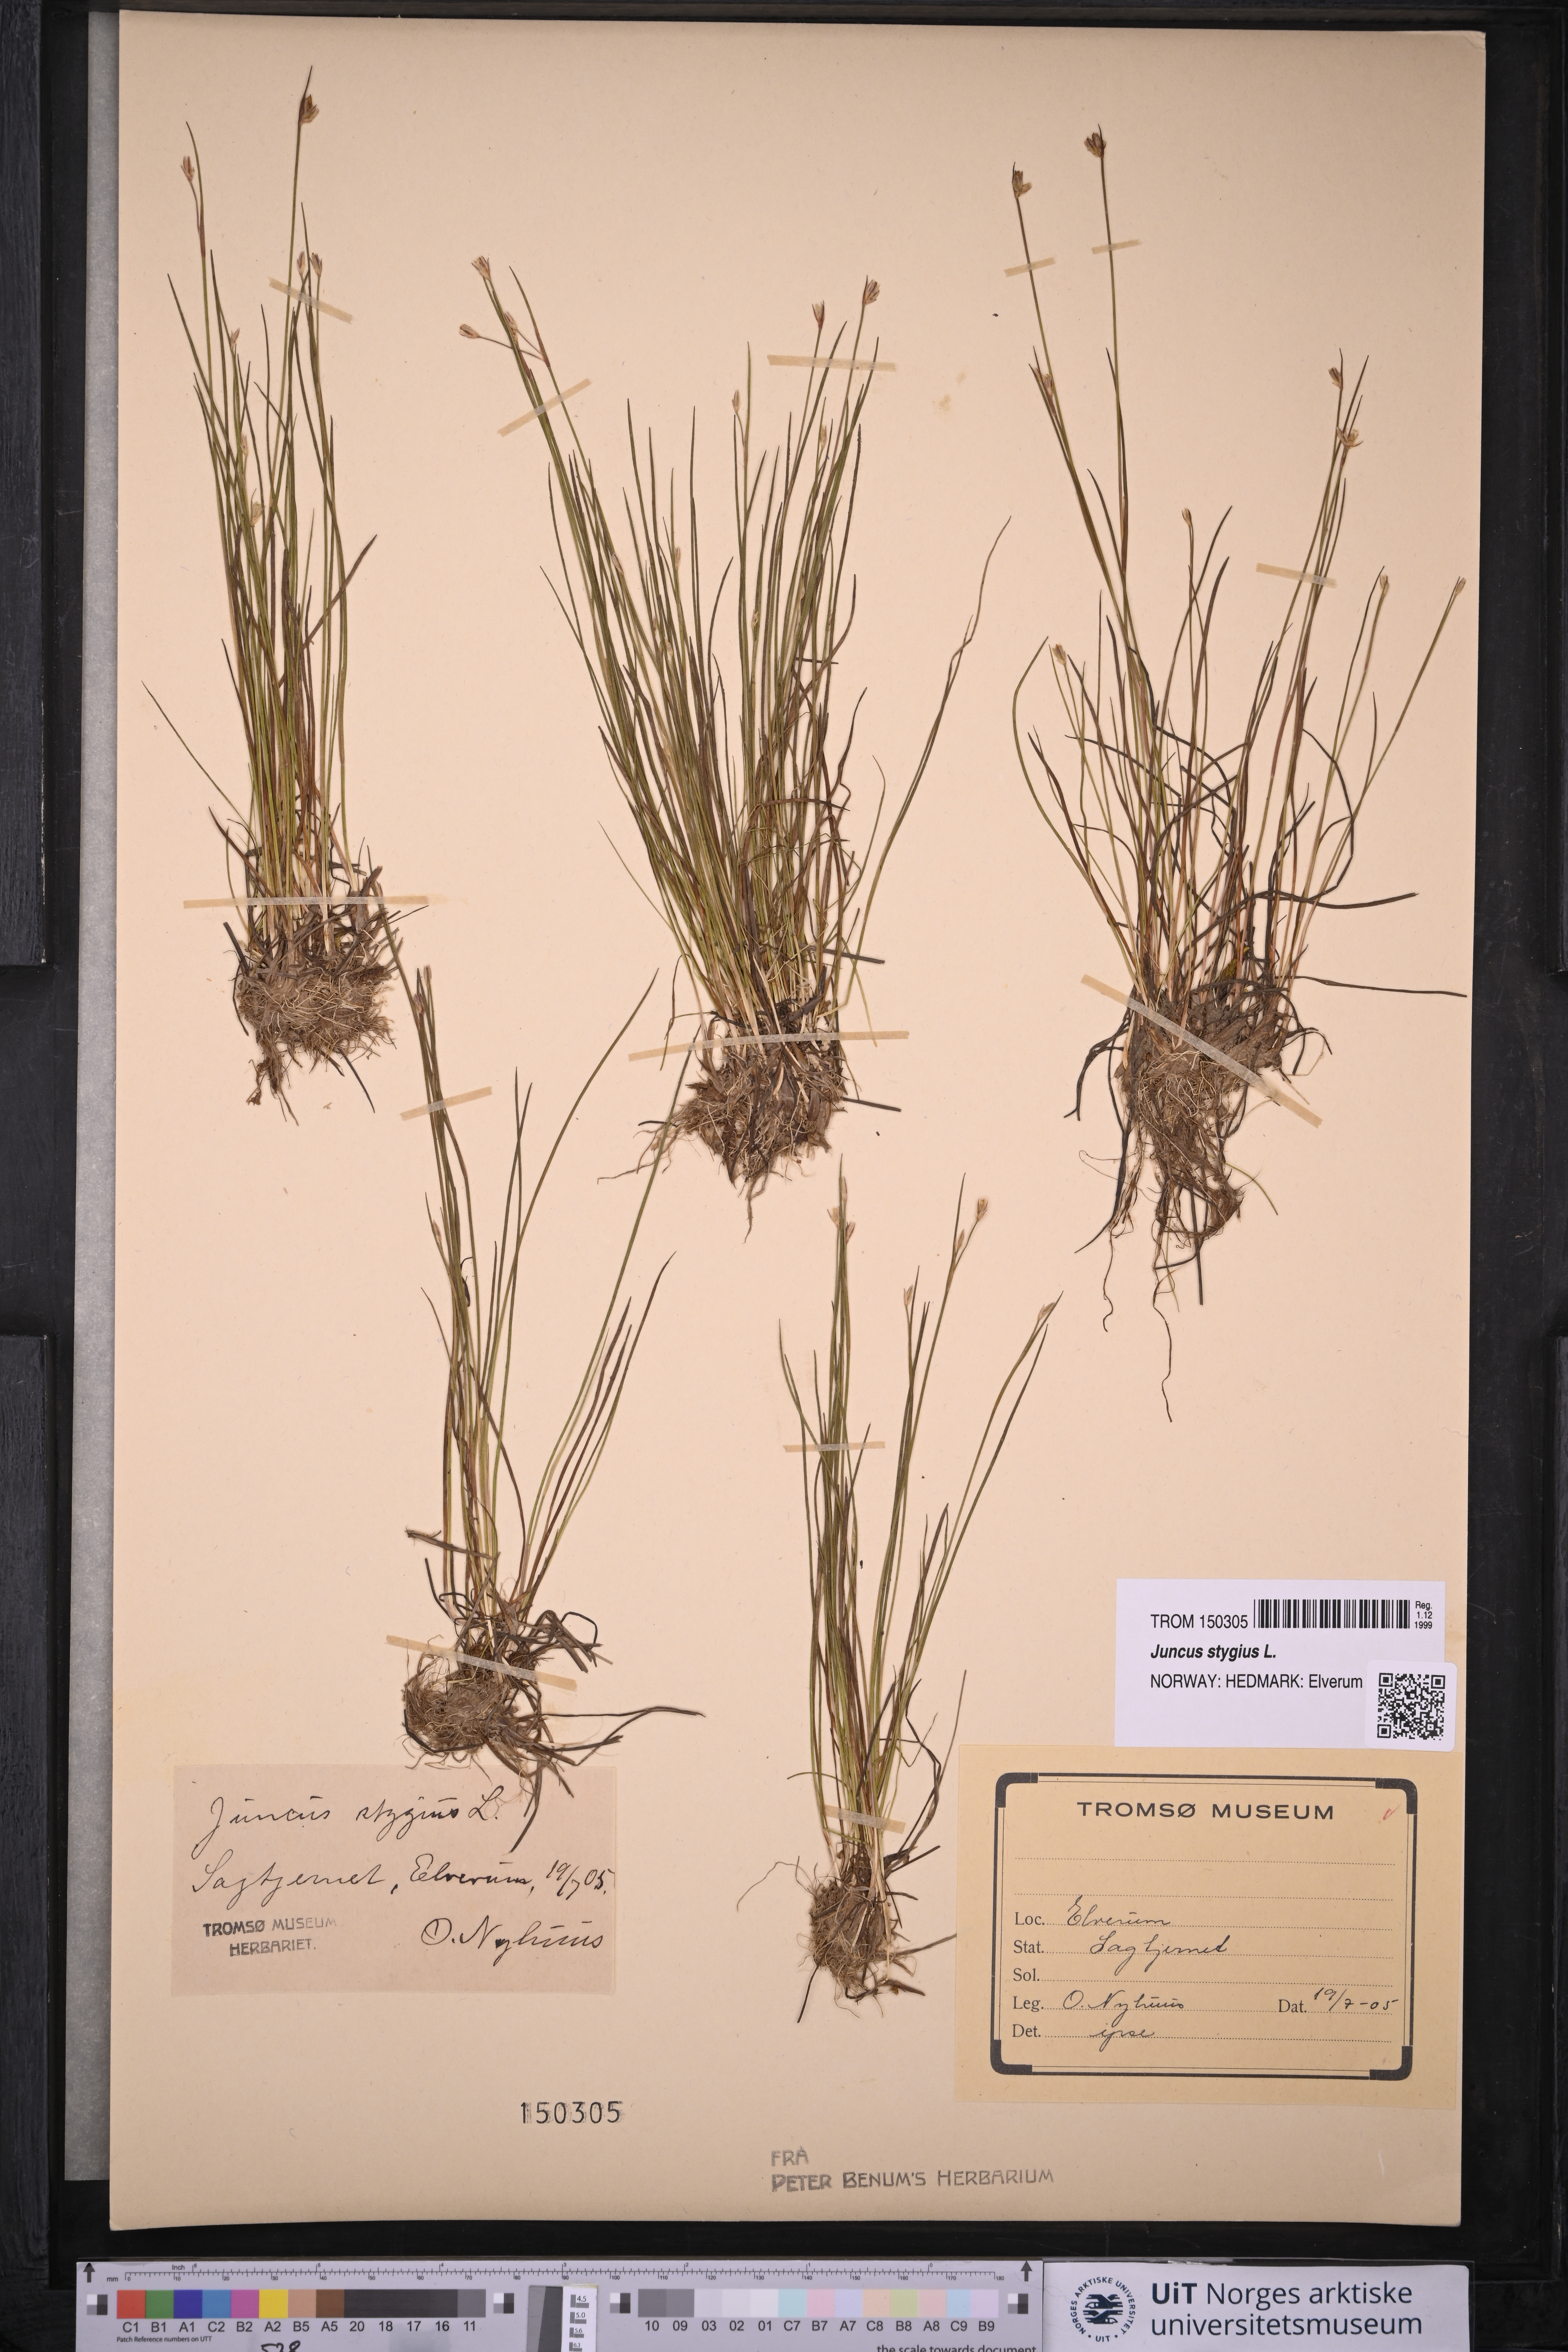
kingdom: Plantae
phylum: Tracheophyta
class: Liliopsida
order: Poales
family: Juncaceae
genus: Juncus
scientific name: Juncus stygius
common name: Bog rush
